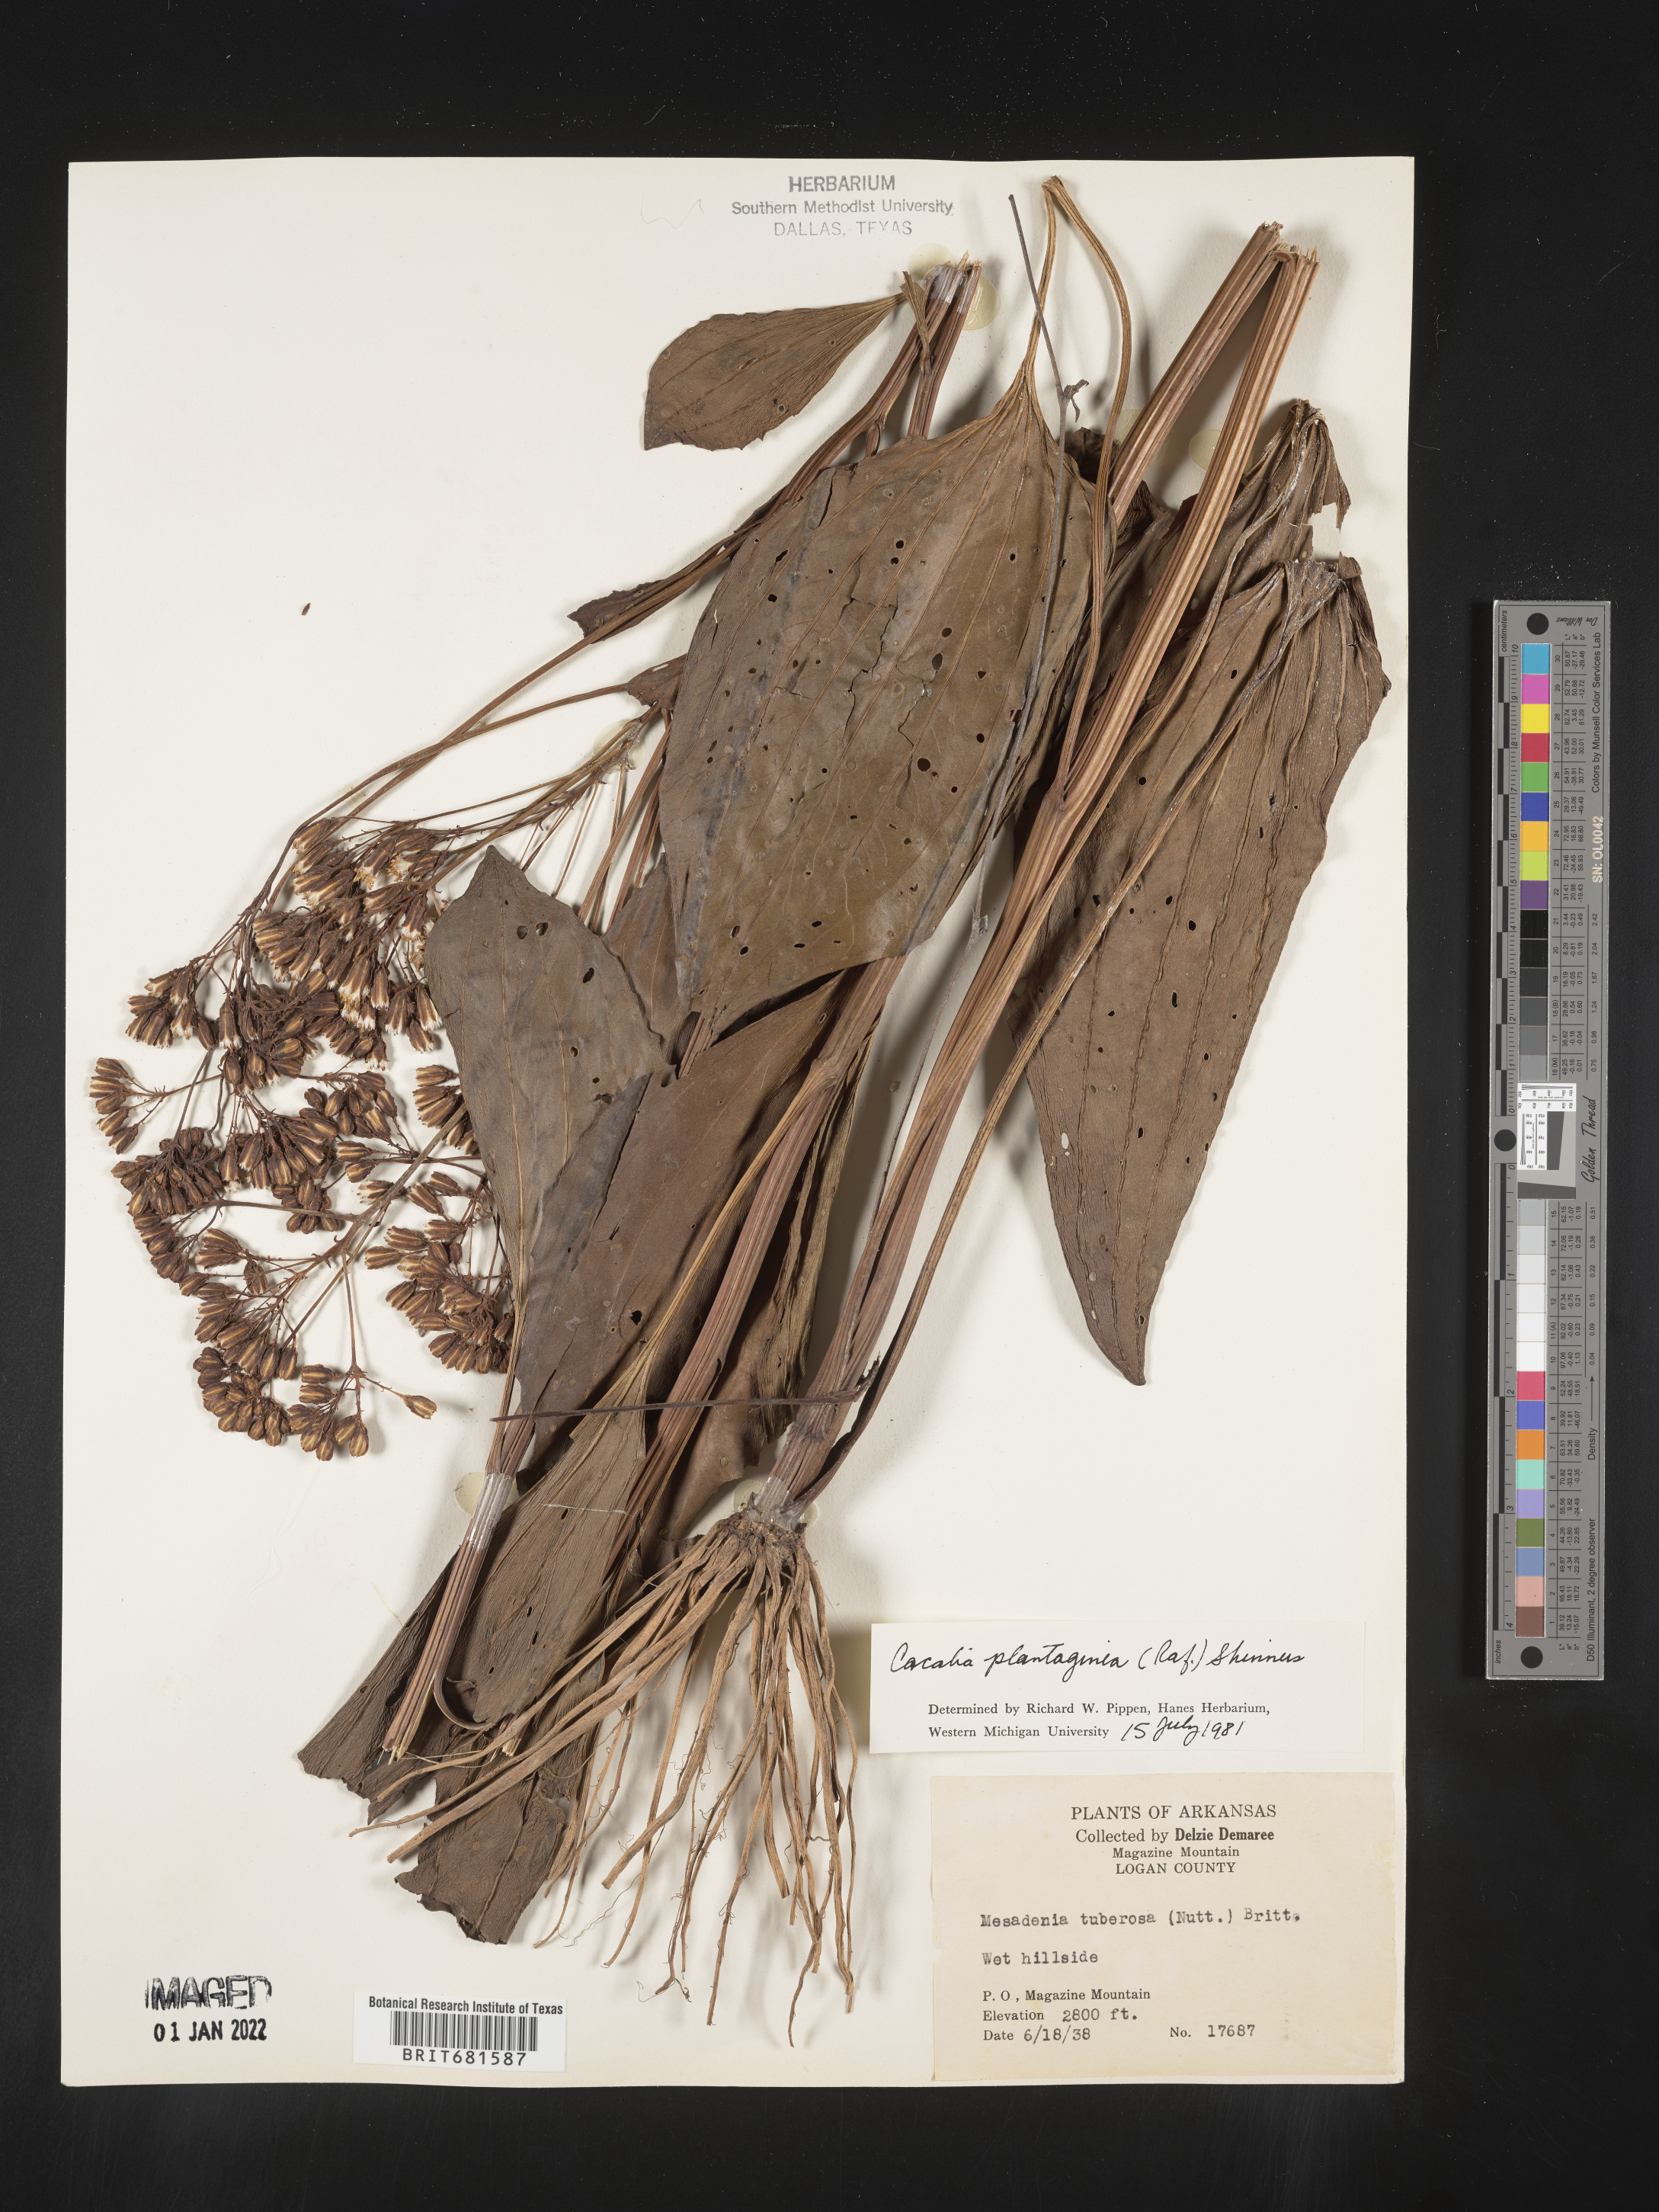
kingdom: Plantae
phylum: Tracheophyta
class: Magnoliopsida
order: Asterales
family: Asteraceae
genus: Arnoglossum
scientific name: Arnoglossum plantagineum
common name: Groove-stemmed indian-plantain
